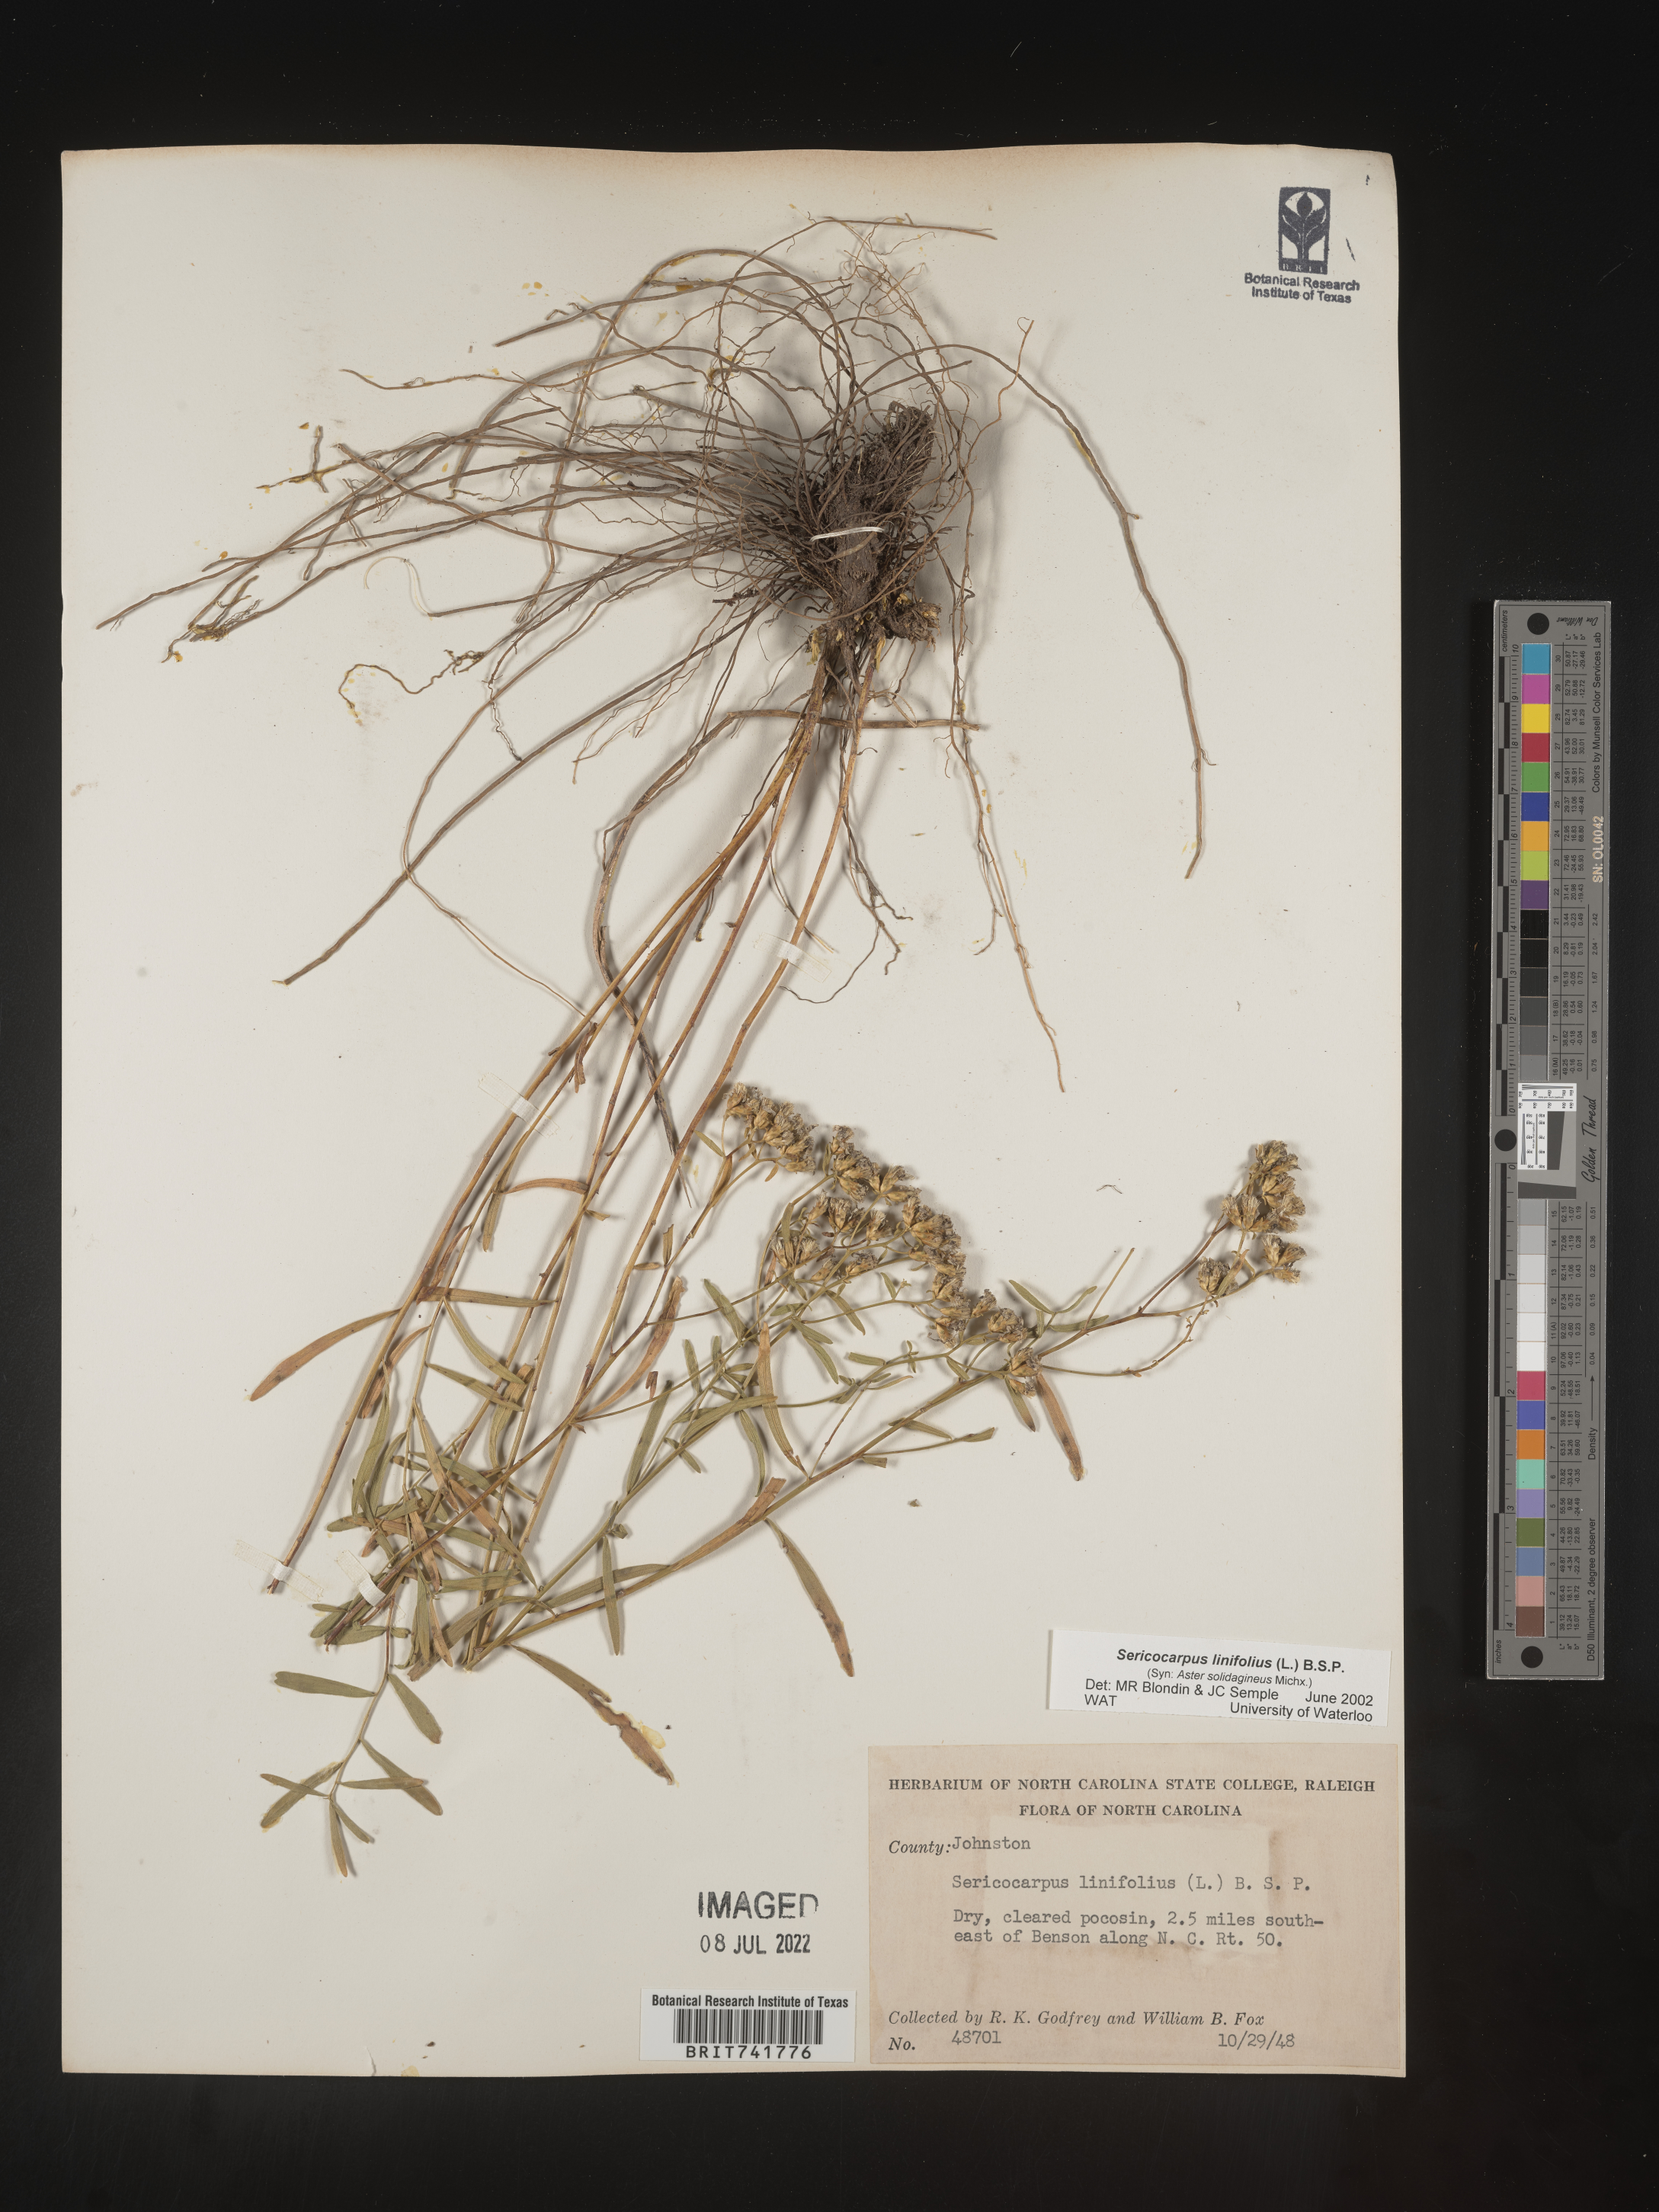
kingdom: Plantae
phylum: Tracheophyta
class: Magnoliopsida
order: Asterales
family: Asteraceae
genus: Sericocarpus
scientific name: Sericocarpus linifolius
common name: Narrow-leaf aster
